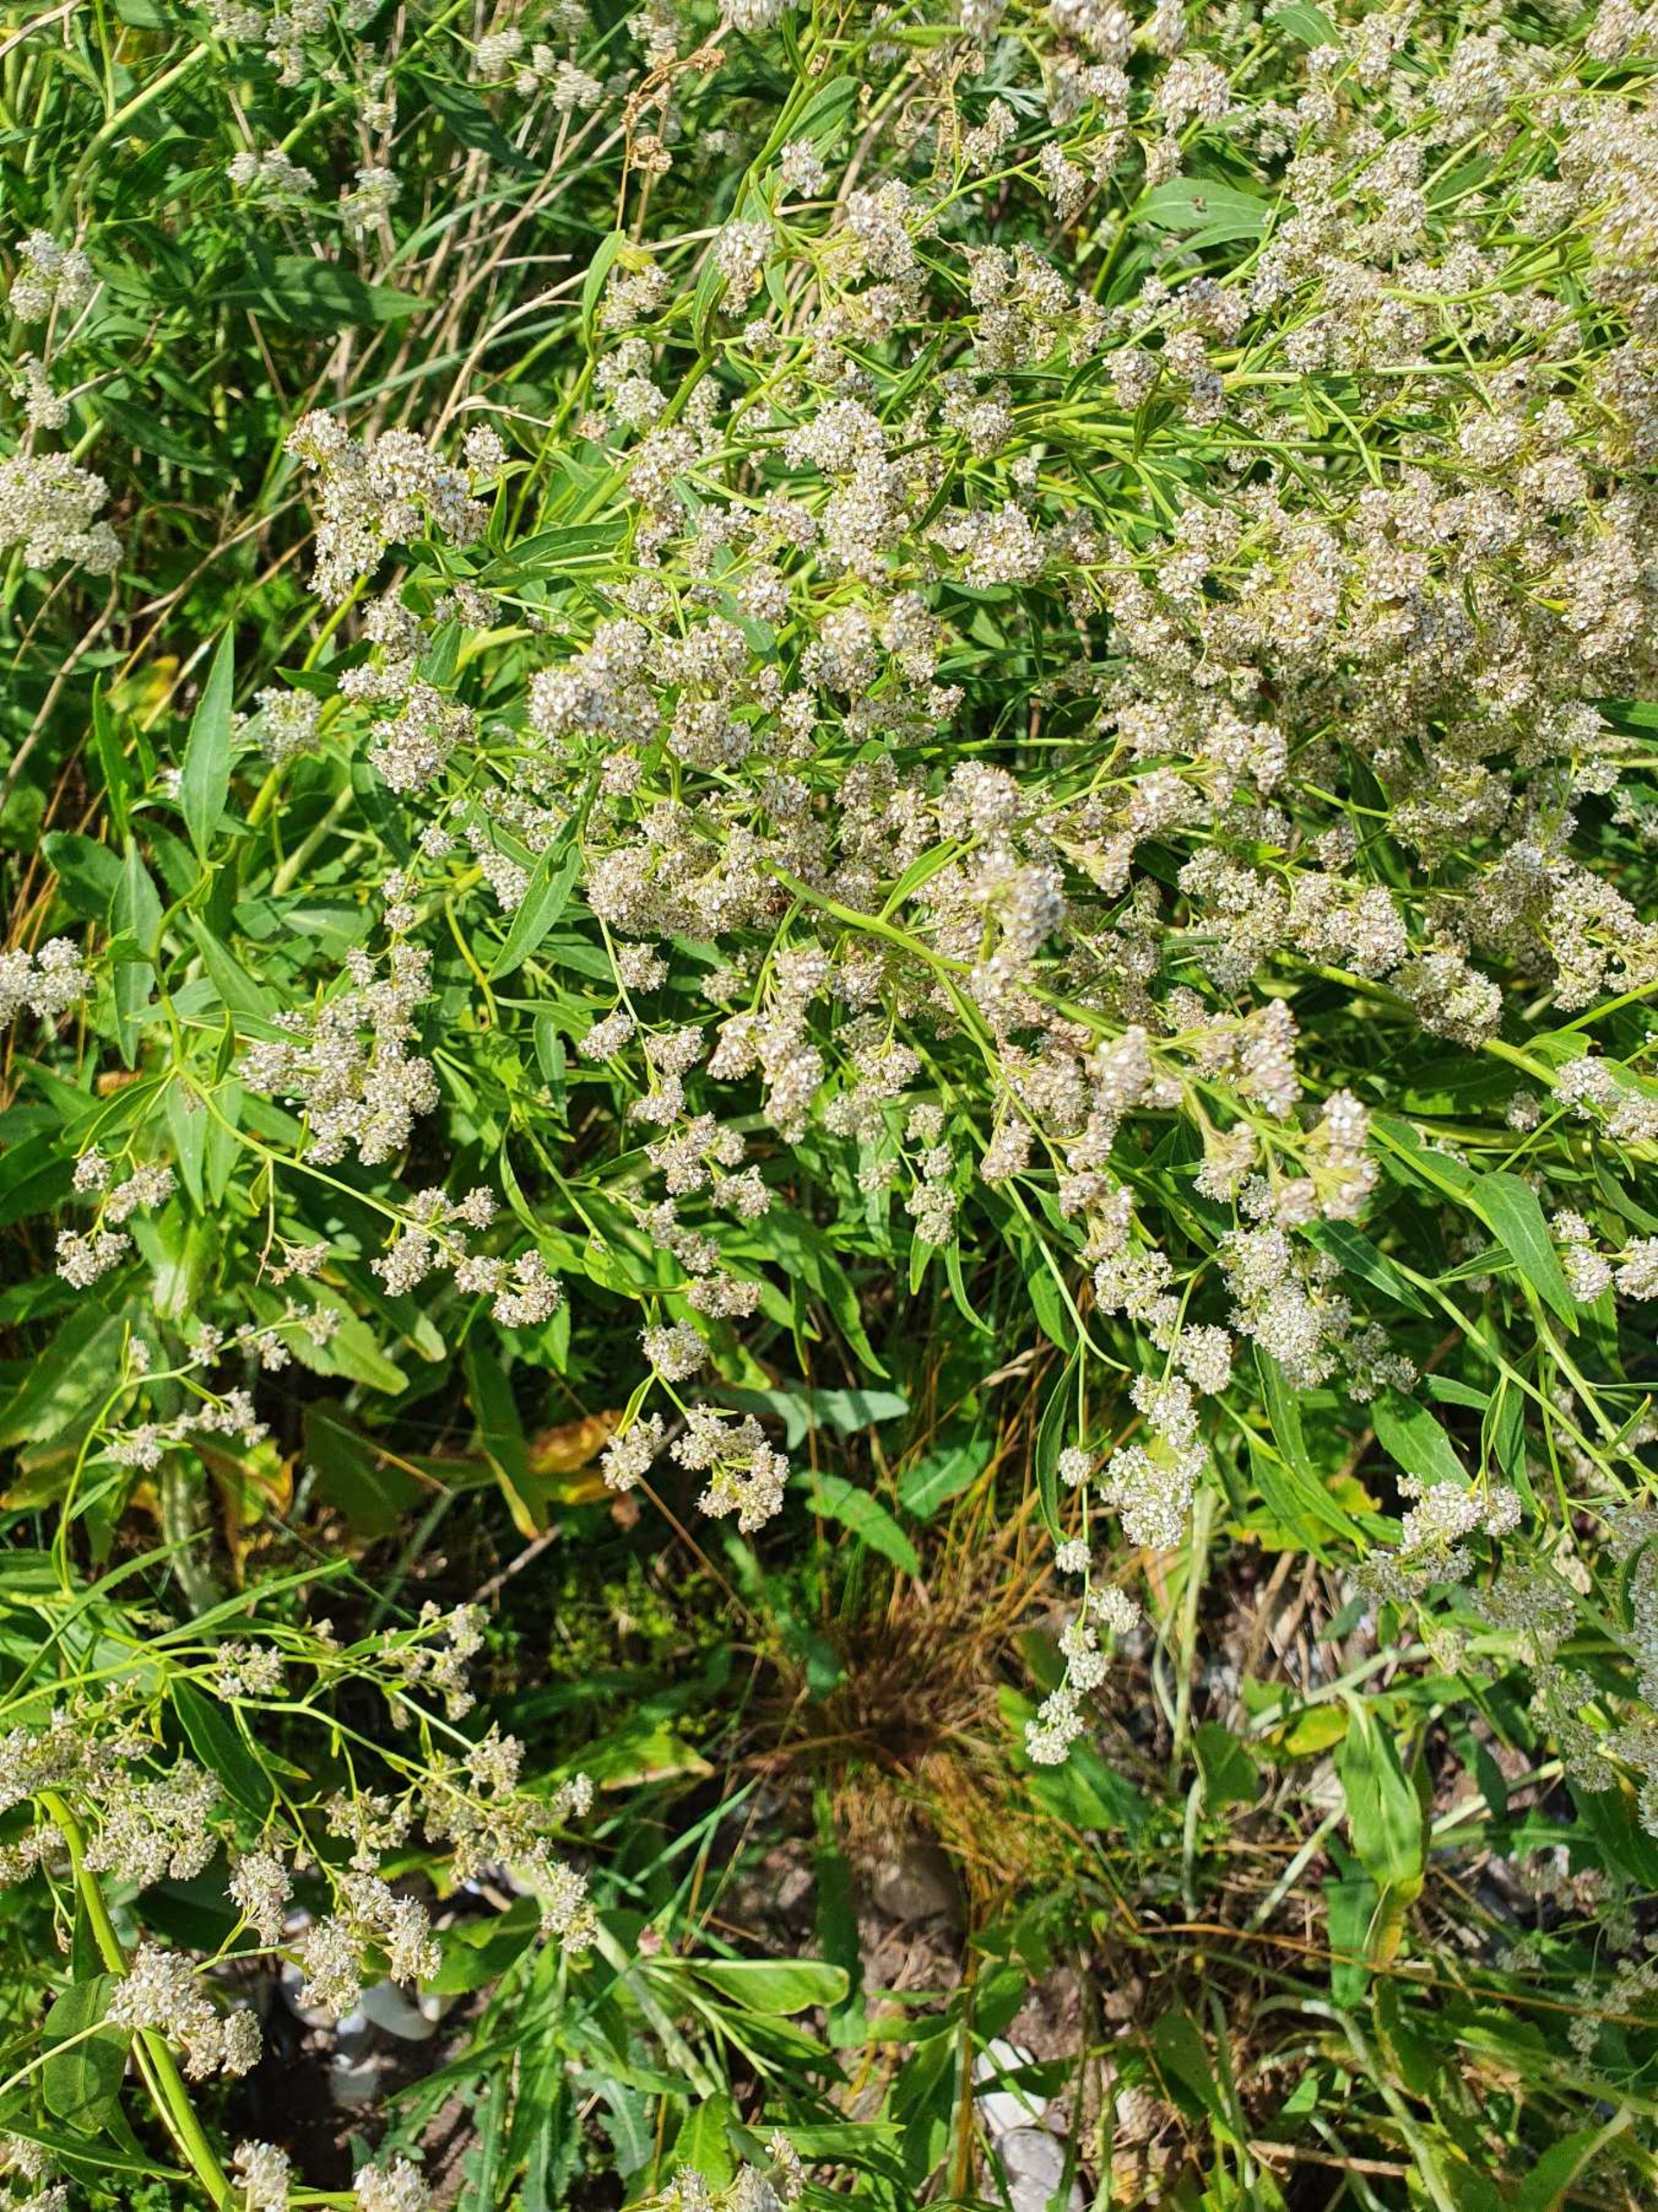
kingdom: Plantae
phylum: Tracheophyta
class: Magnoliopsida
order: Brassicales
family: Brassicaceae
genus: Lepidium
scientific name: Lepidium latifolium
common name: Strand-karse
